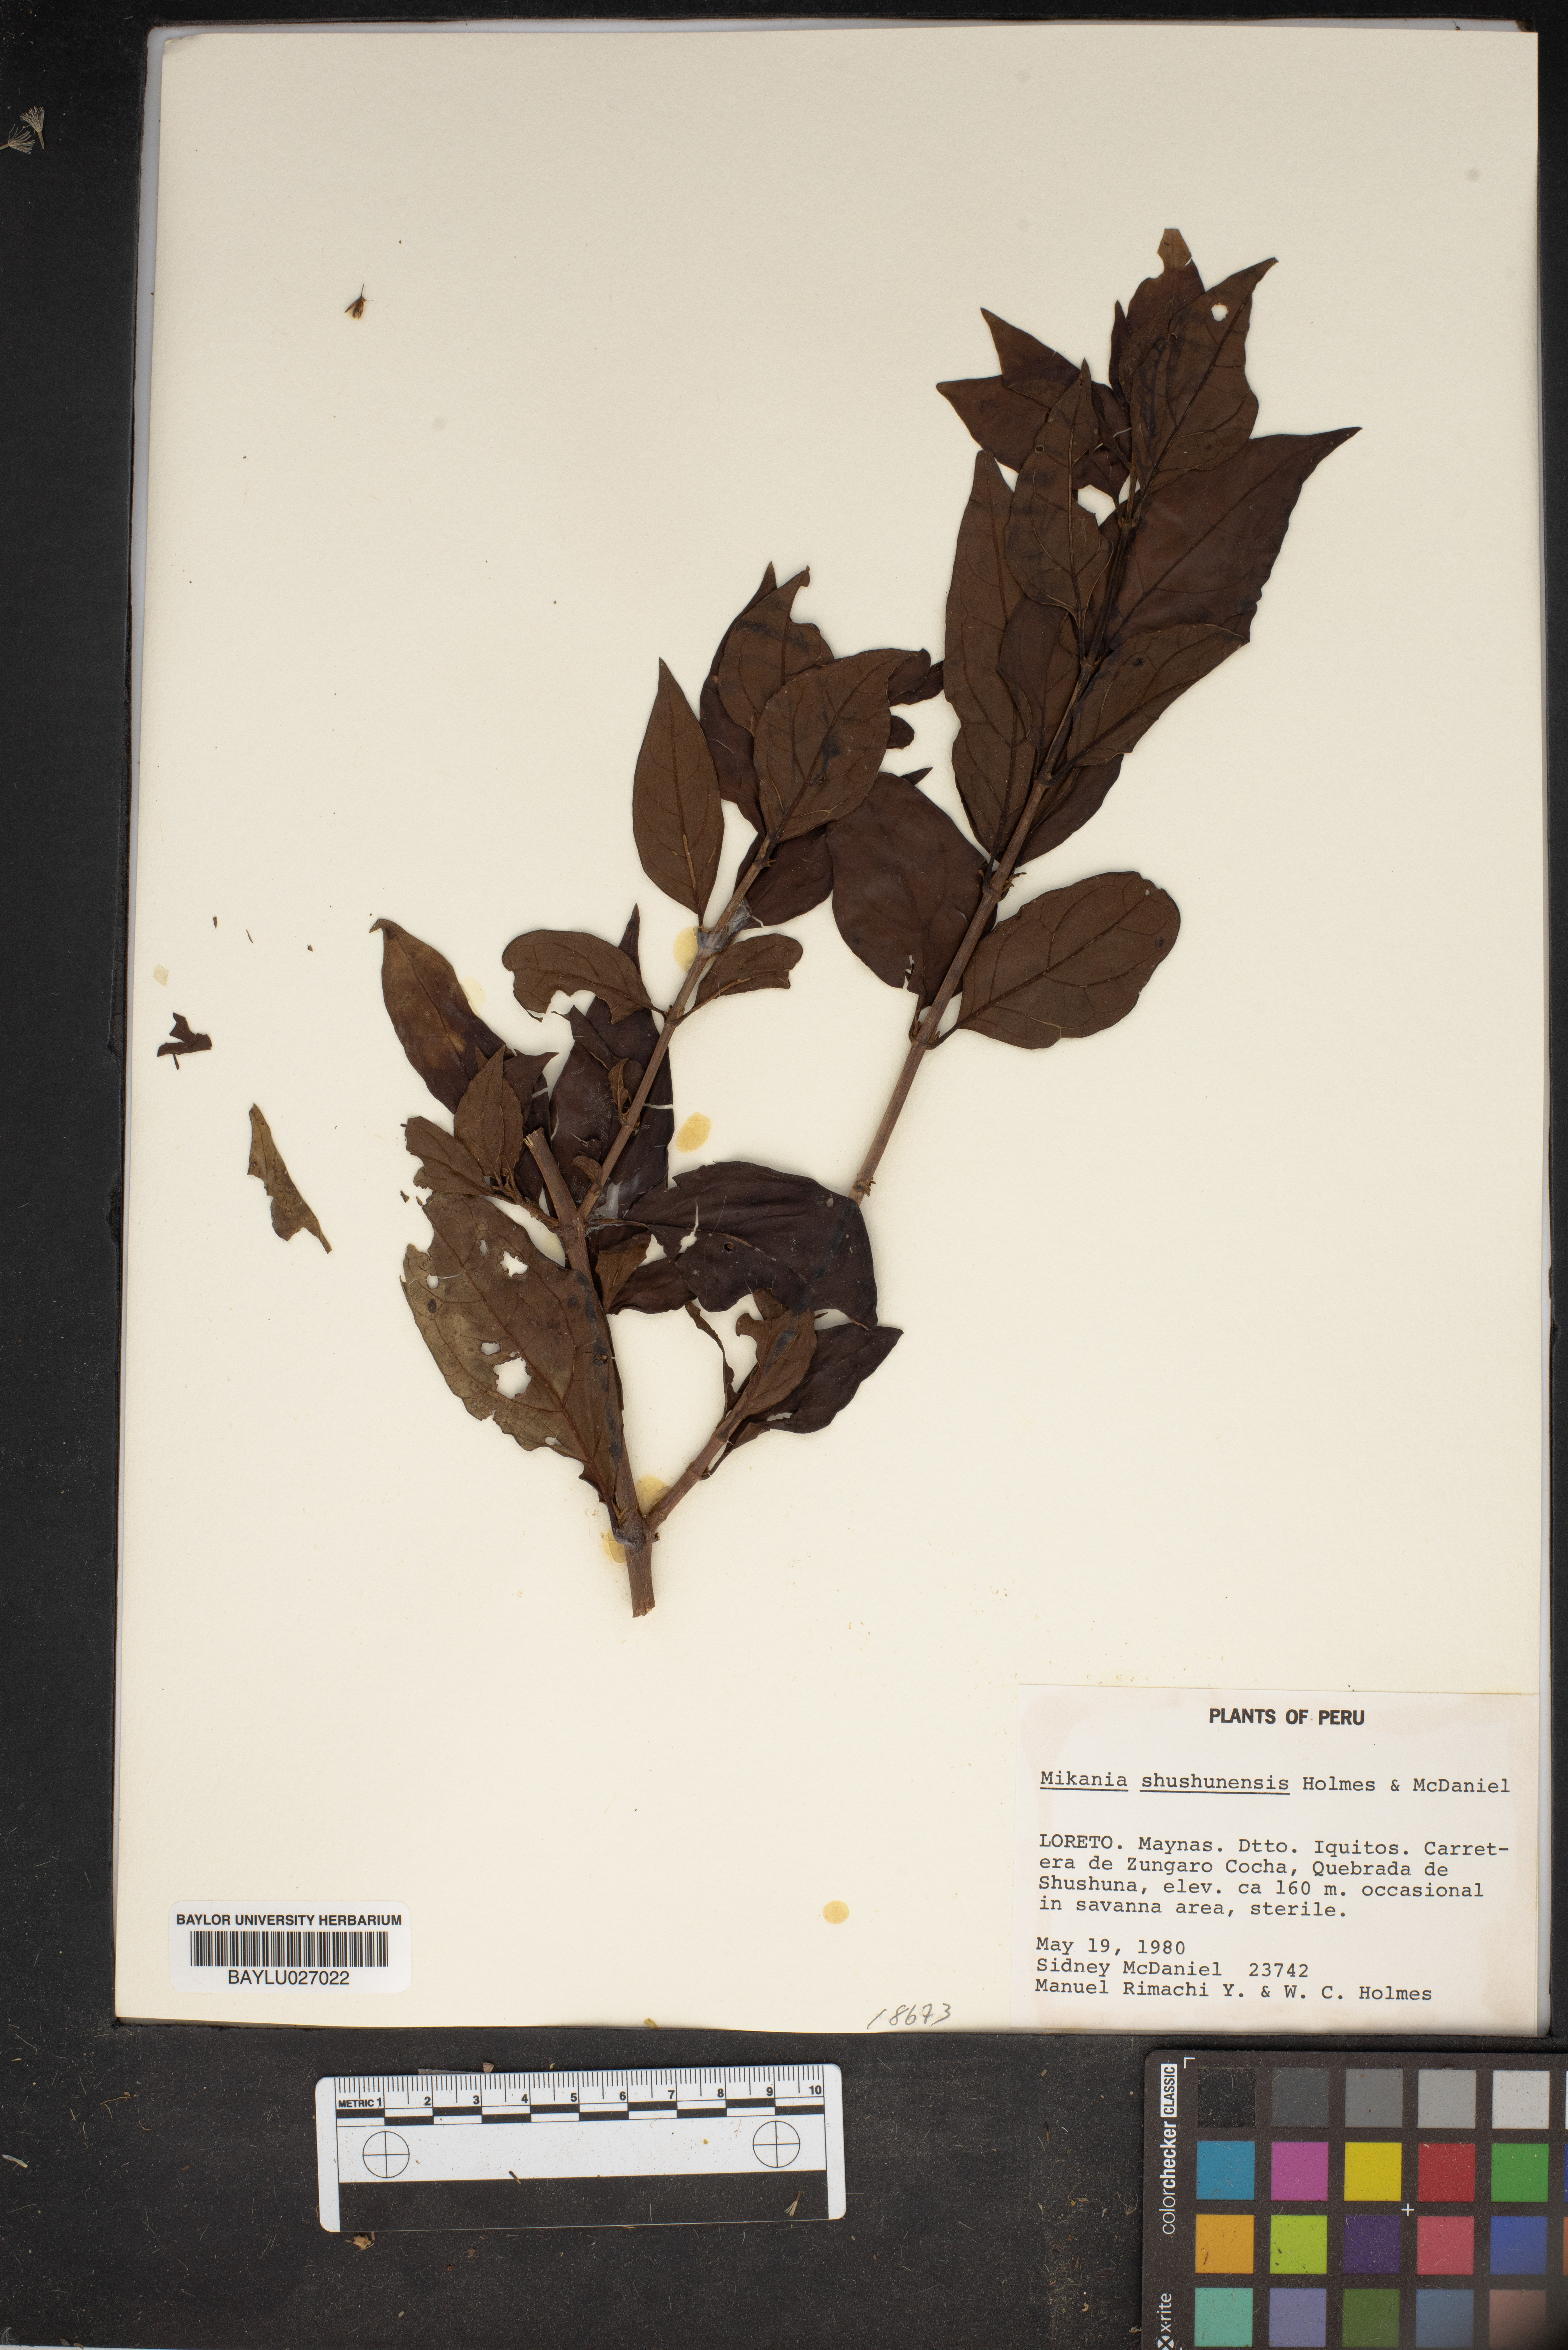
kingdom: Plantae
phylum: Tracheophyta
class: Magnoliopsida
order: Asterales
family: Asteraceae
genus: Mikania
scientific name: Mikania shushunensis
